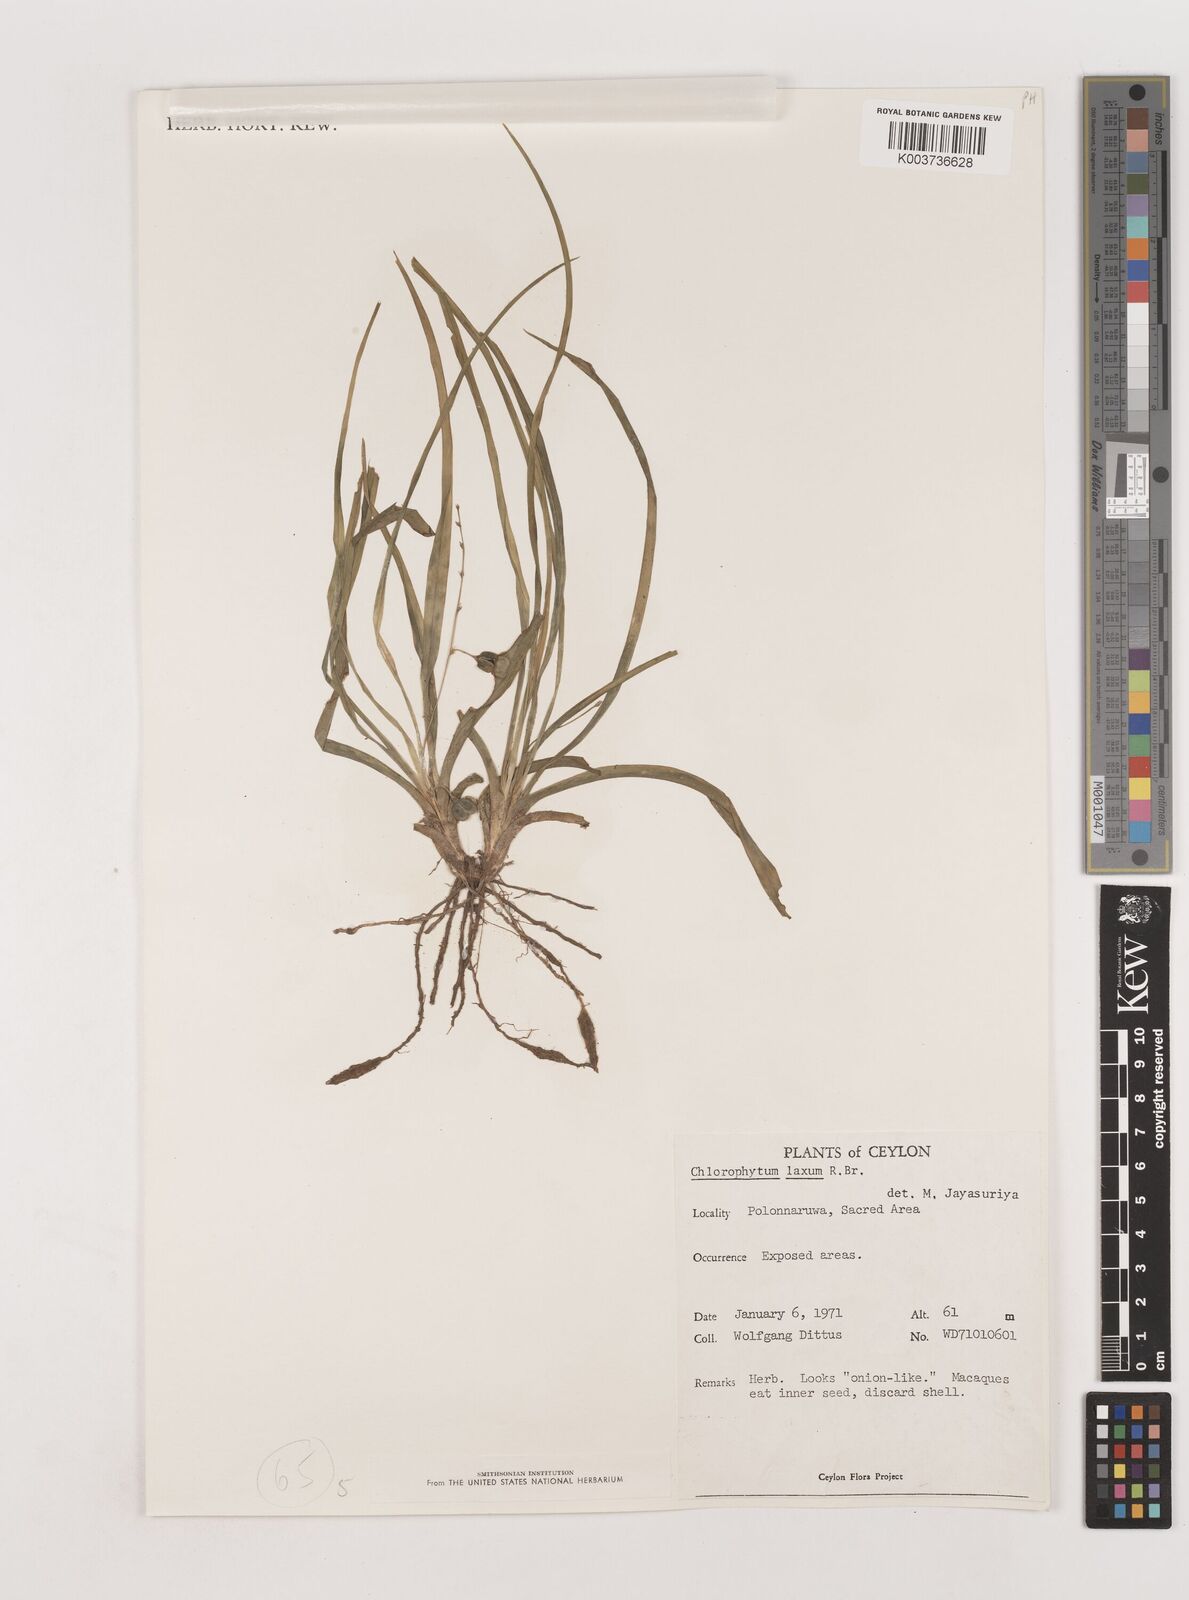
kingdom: Plantae
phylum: Tracheophyta
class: Liliopsida
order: Asparagales
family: Asparagaceae
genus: Chlorophytum
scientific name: Chlorophytum laxum
